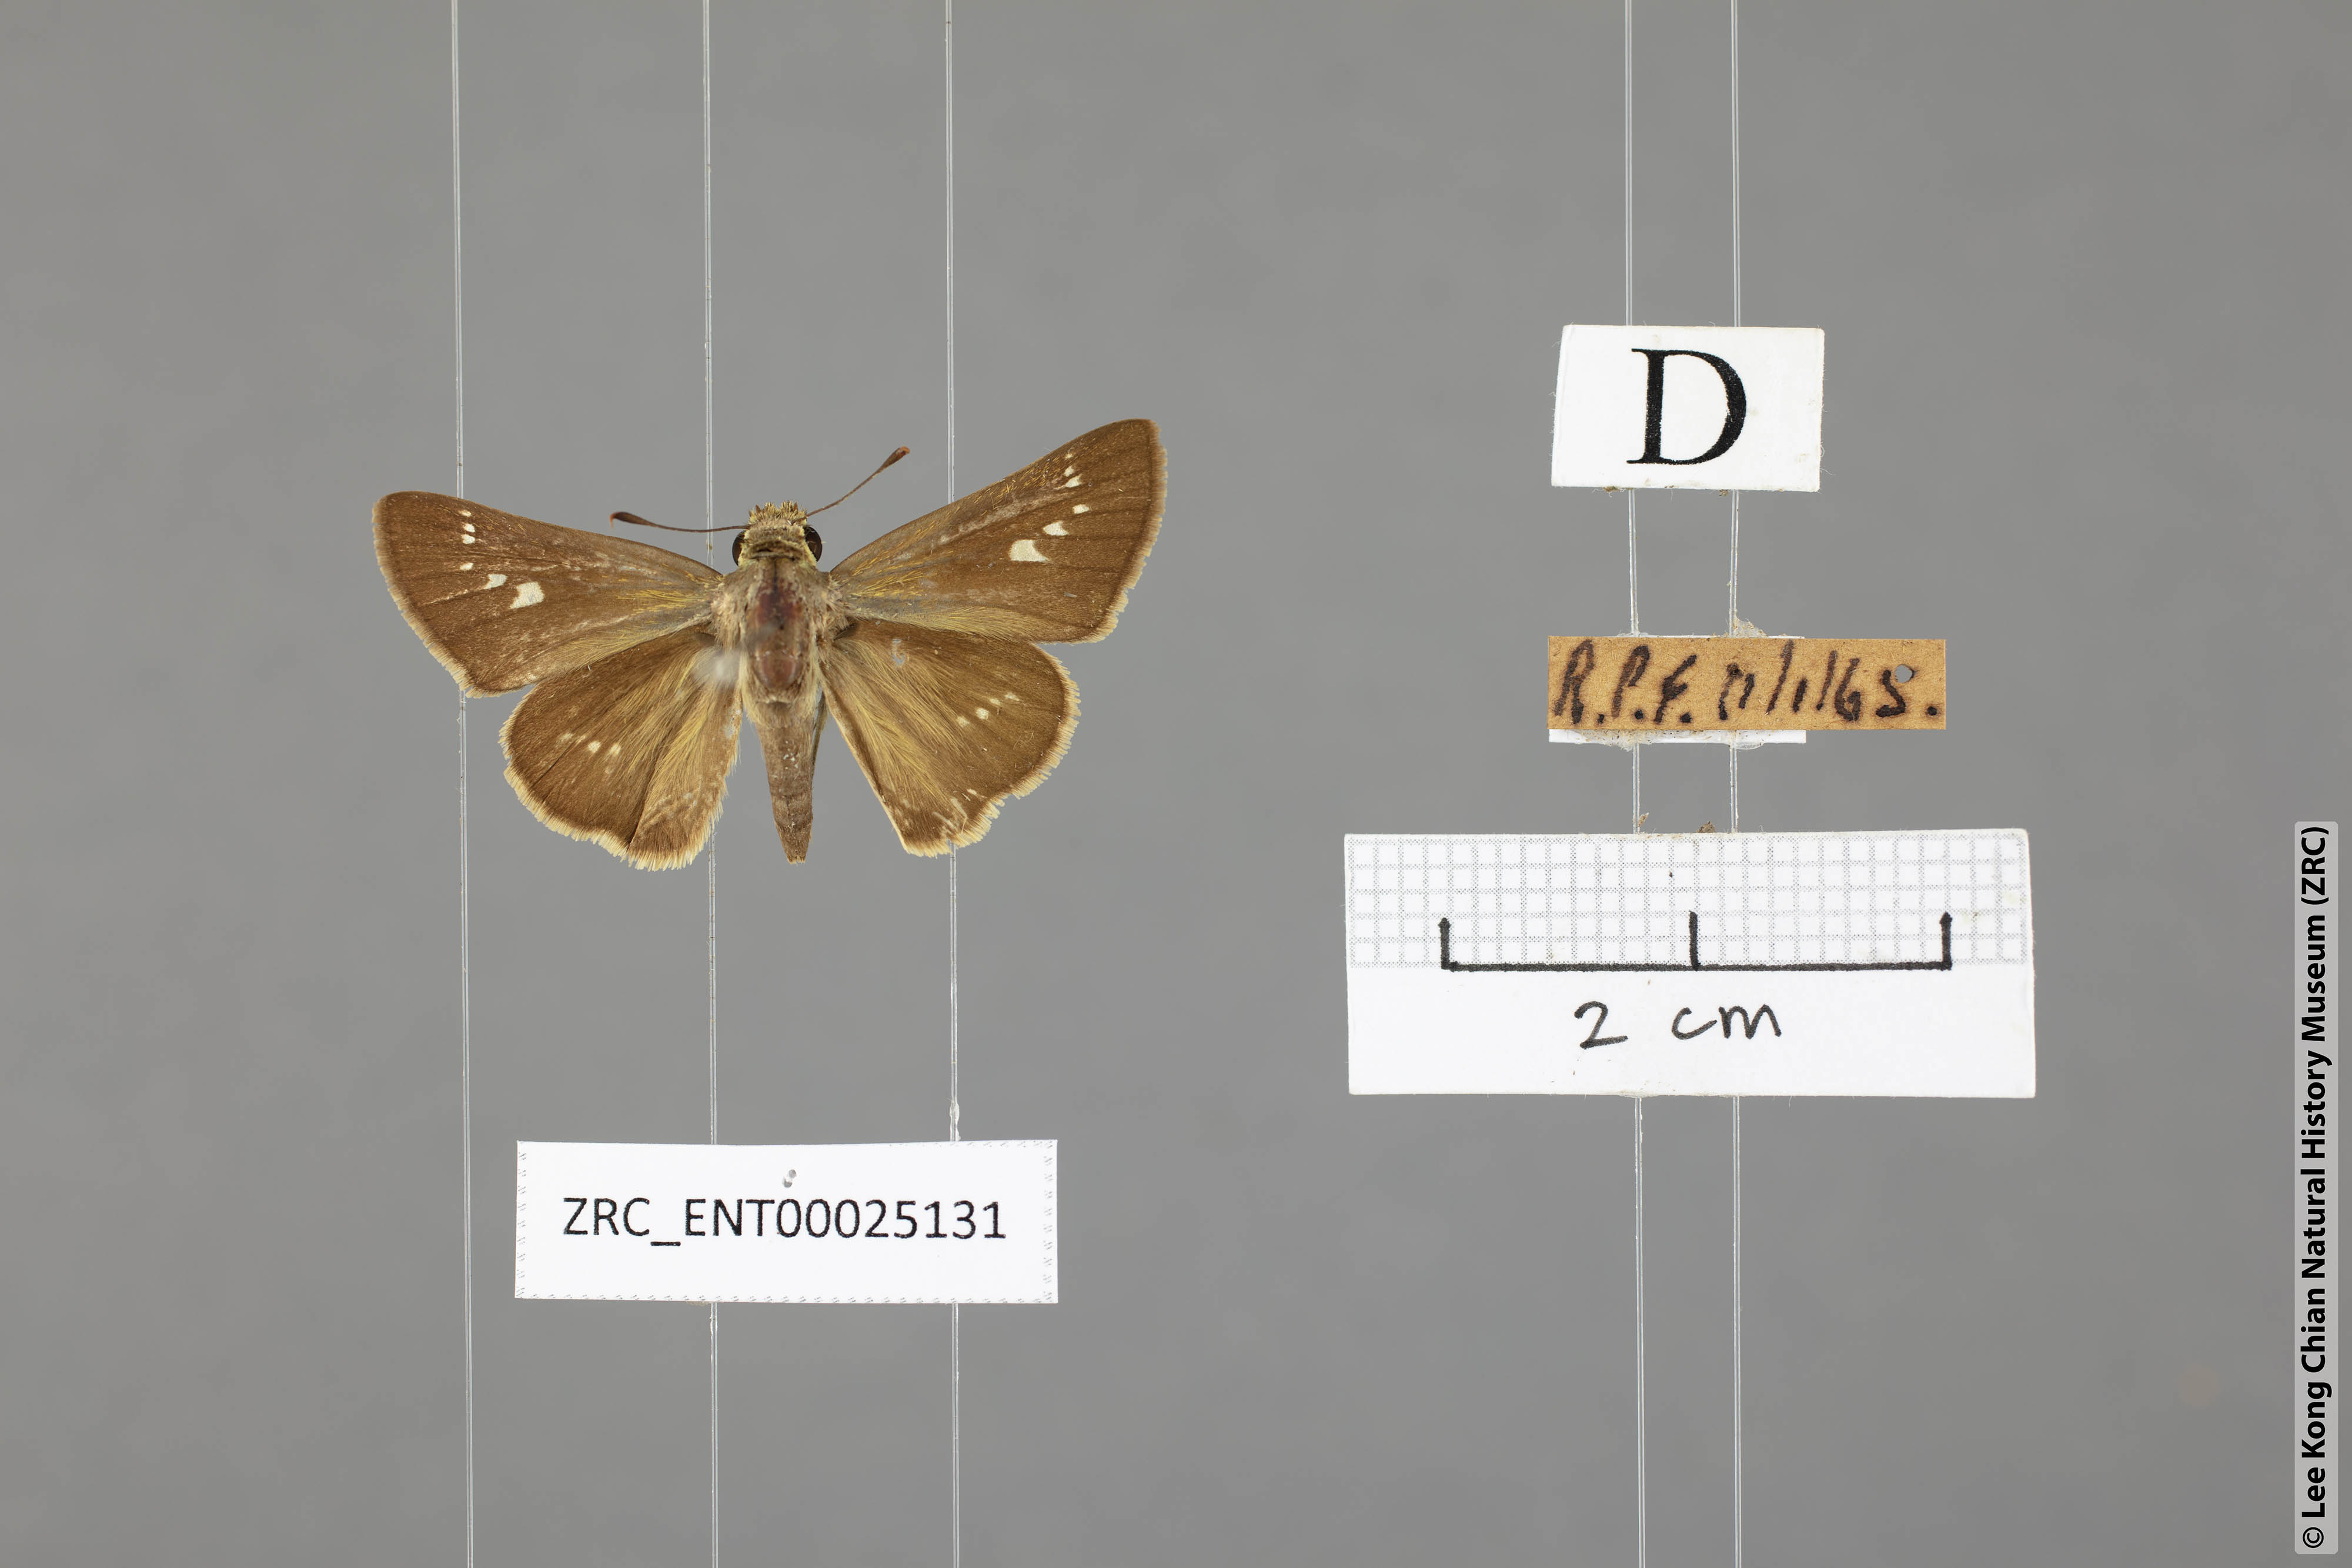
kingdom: Animalia
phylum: Arthropoda
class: Insecta
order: Lepidoptera
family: Hesperiidae
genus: Parnara
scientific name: Parnara naso
